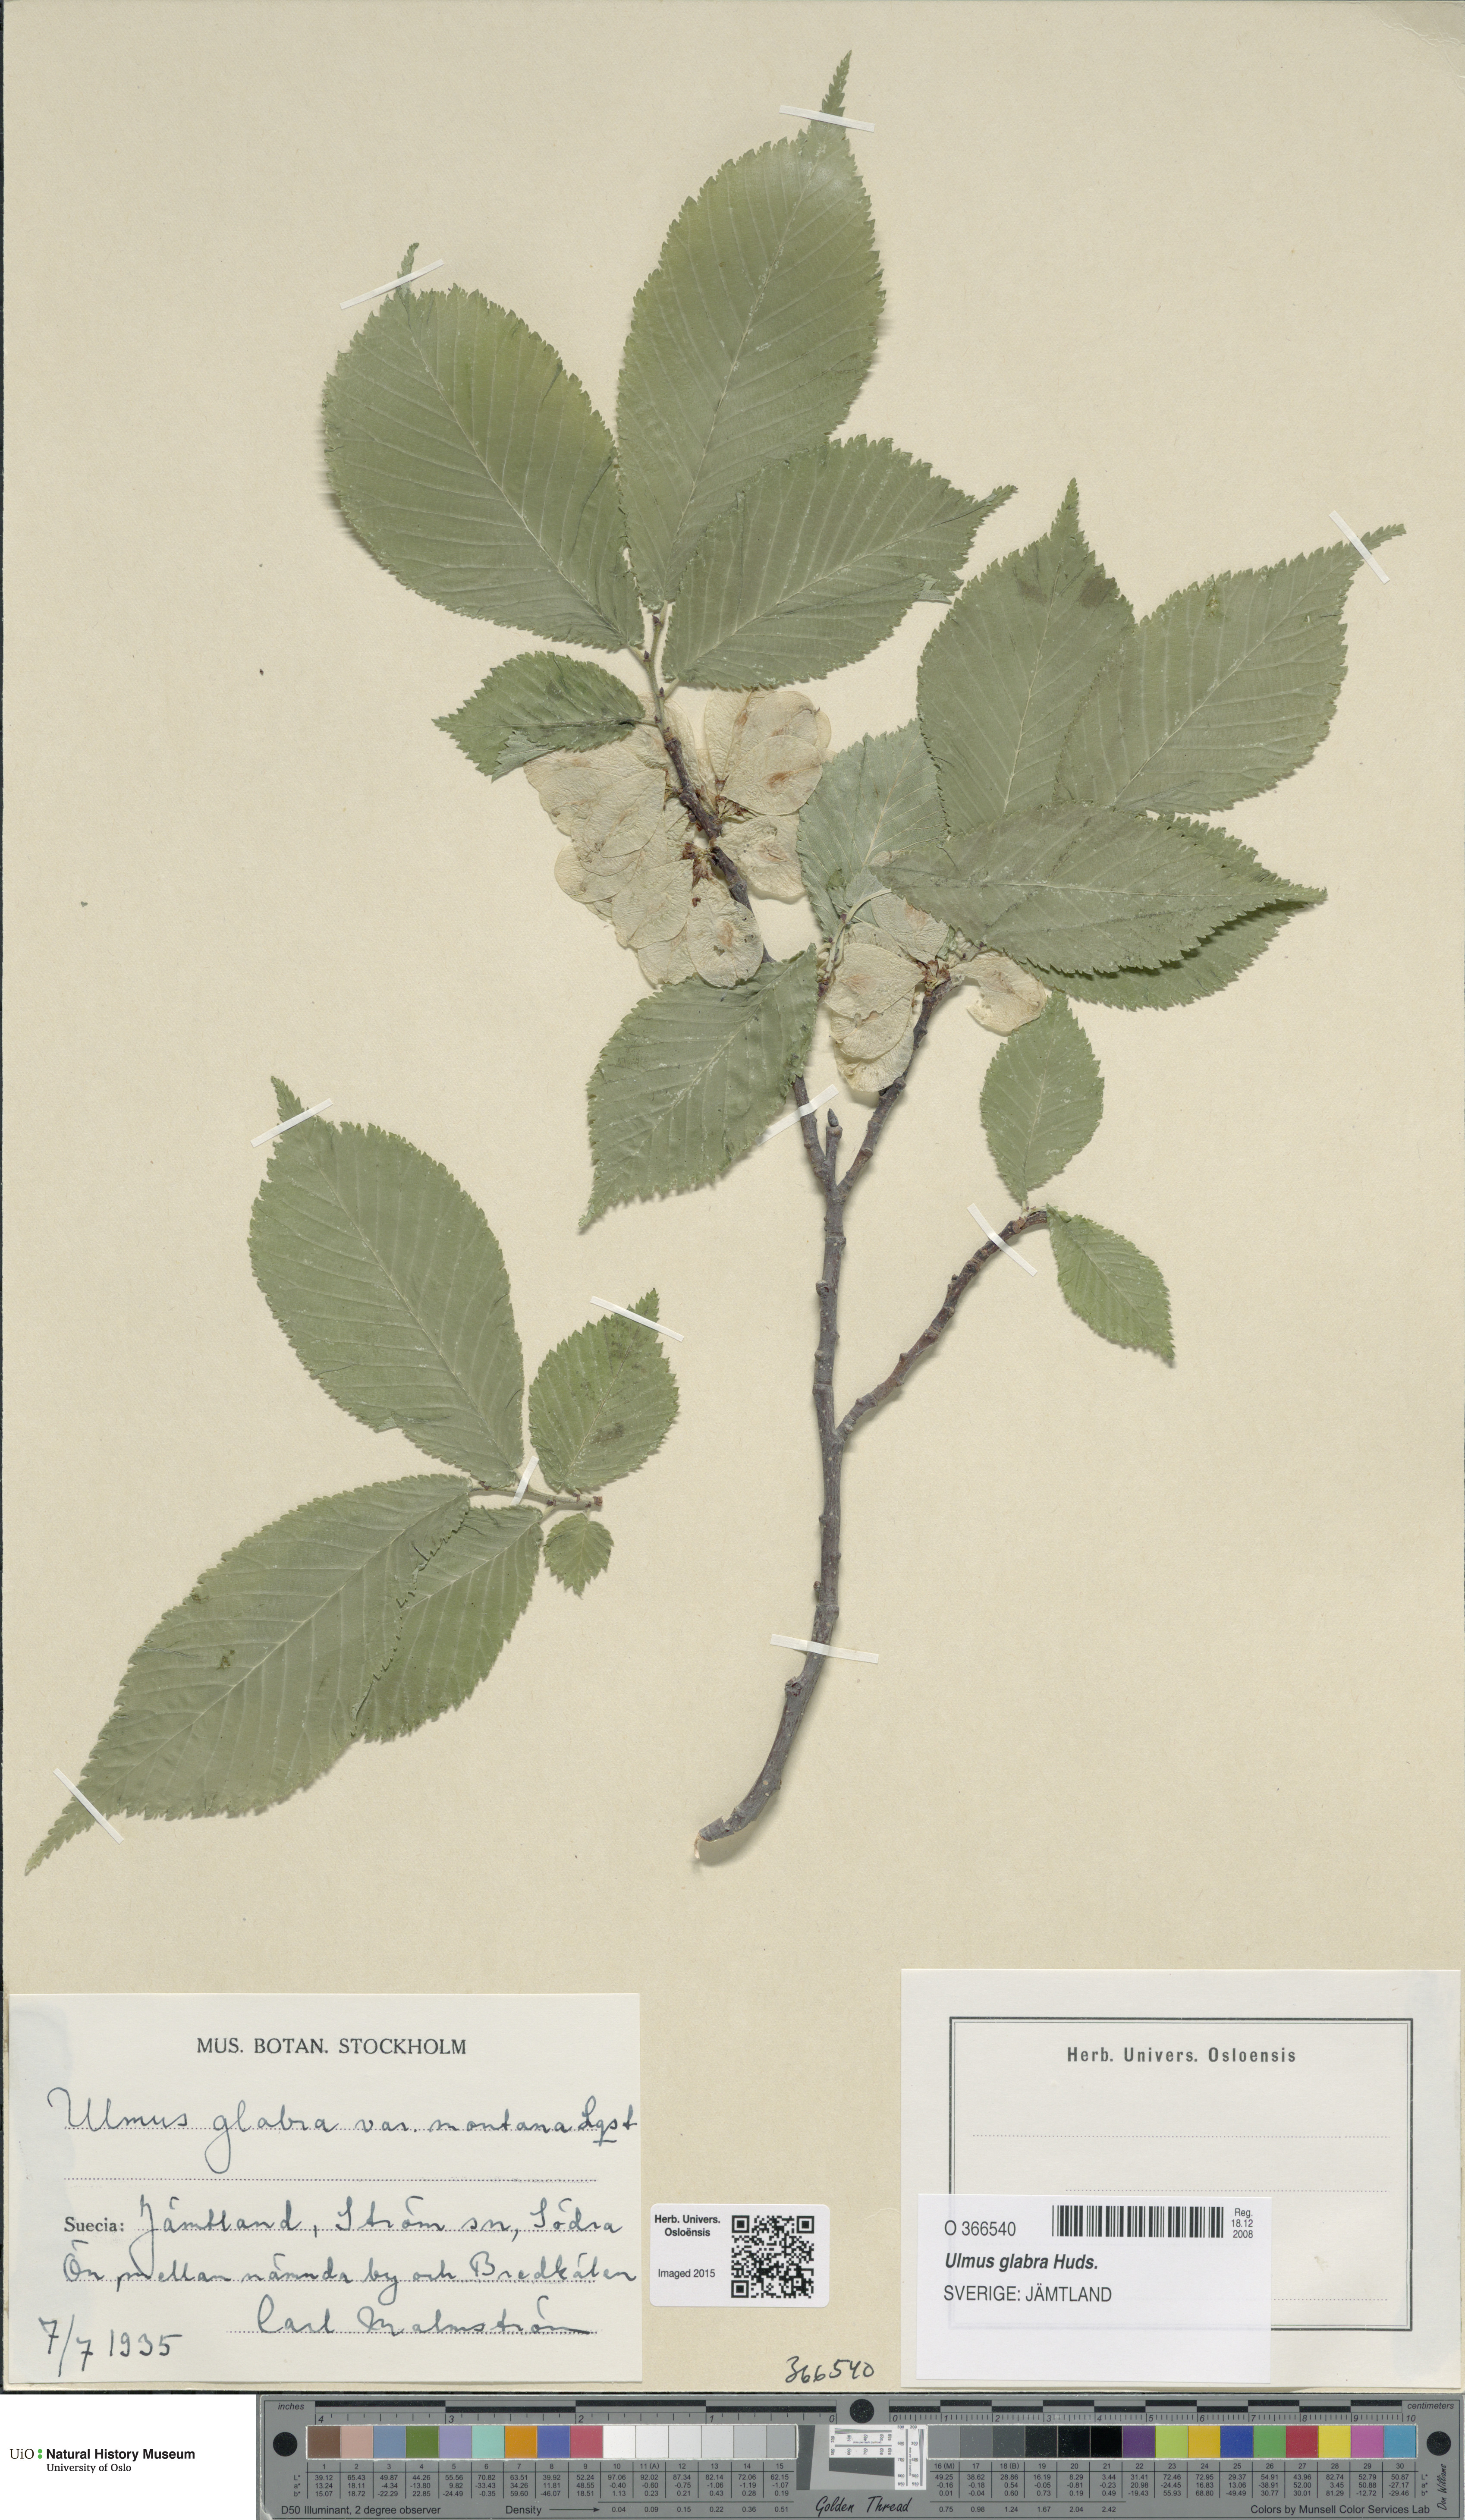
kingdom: Plantae
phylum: Tracheophyta
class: Magnoliopsida
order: Rosales
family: Ulmaceae
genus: Ulmus
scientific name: Ulmus glabra
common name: Wych elm
